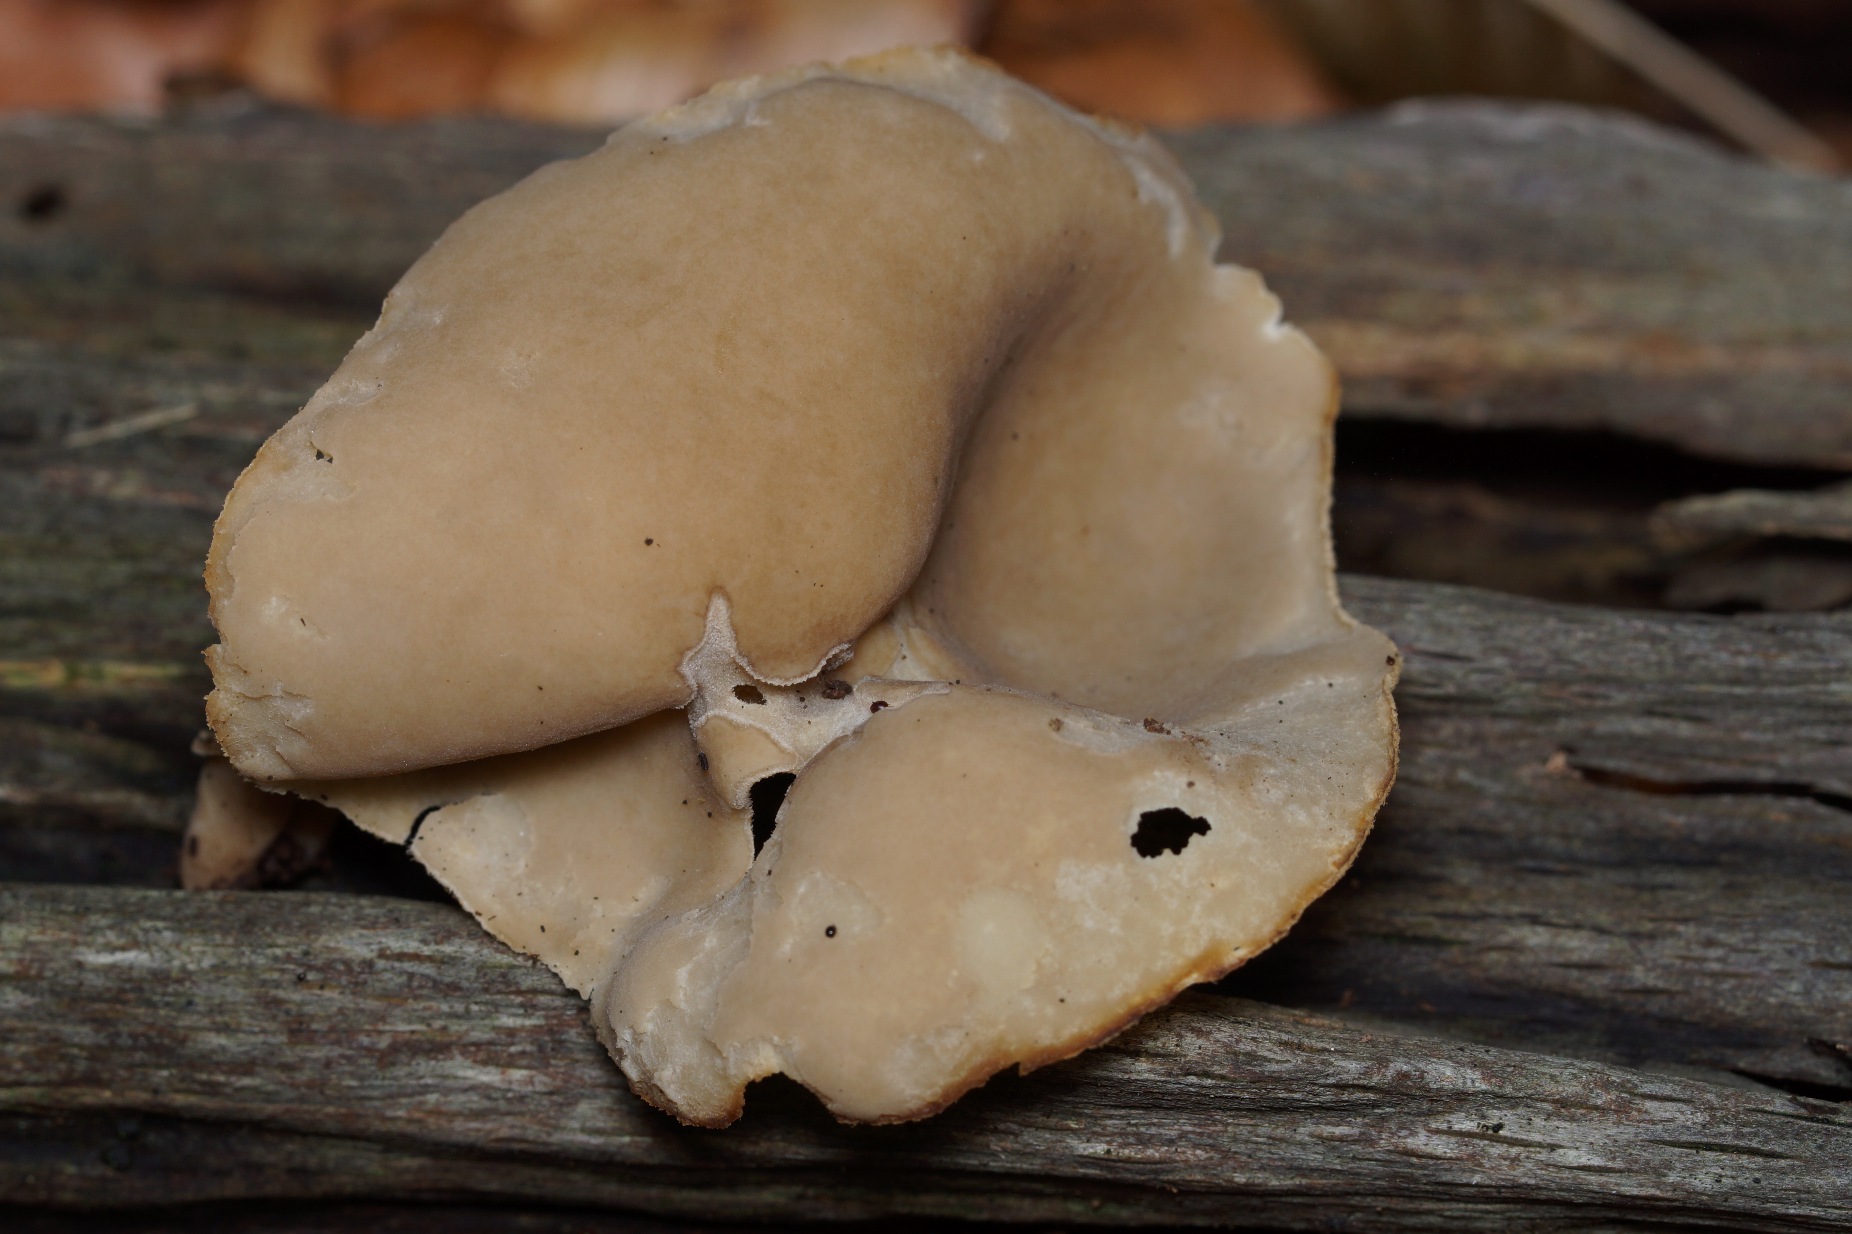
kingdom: Fungi
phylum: Ascomycota
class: Pezizomycetes
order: Pezizales
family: Helvellaceae
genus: Helvella
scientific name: Helvella fibrosa
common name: Dunstokket foldhat
